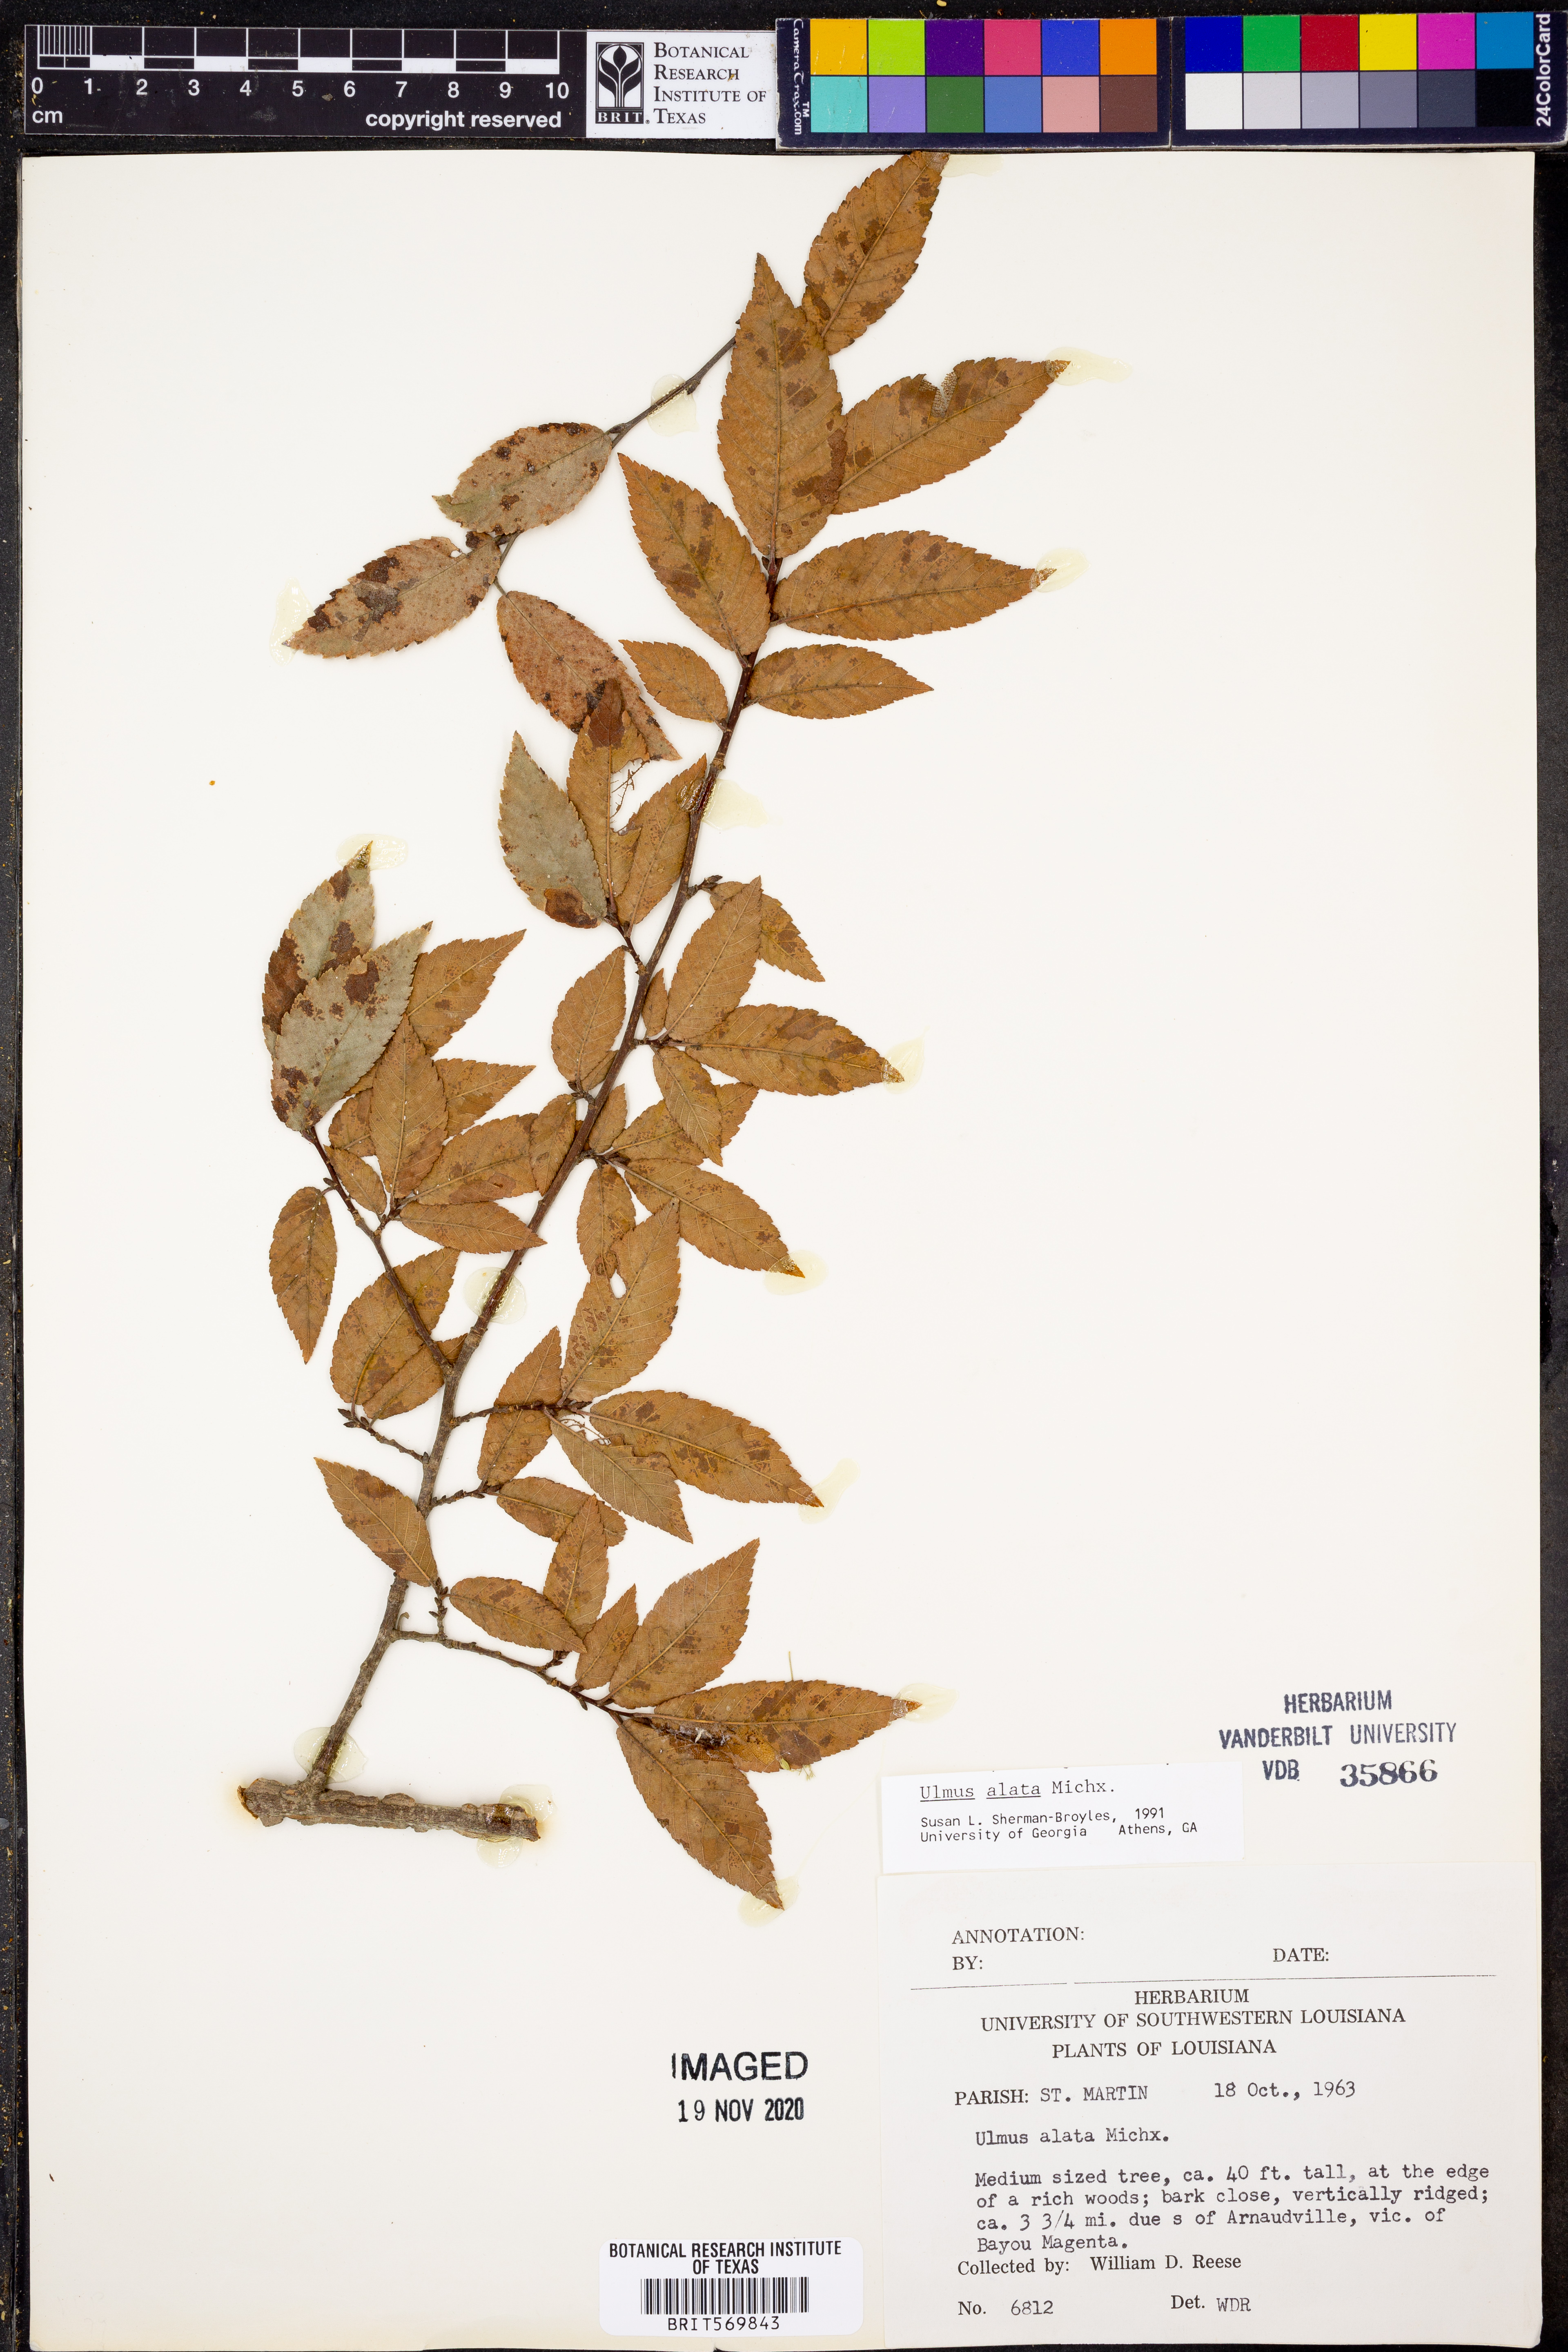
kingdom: Plantae
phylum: Tracheophyta
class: Magnoliopsida
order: Rosales
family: Ulmaceae
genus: Ulmus
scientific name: Ulmus alata
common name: Winged elm
